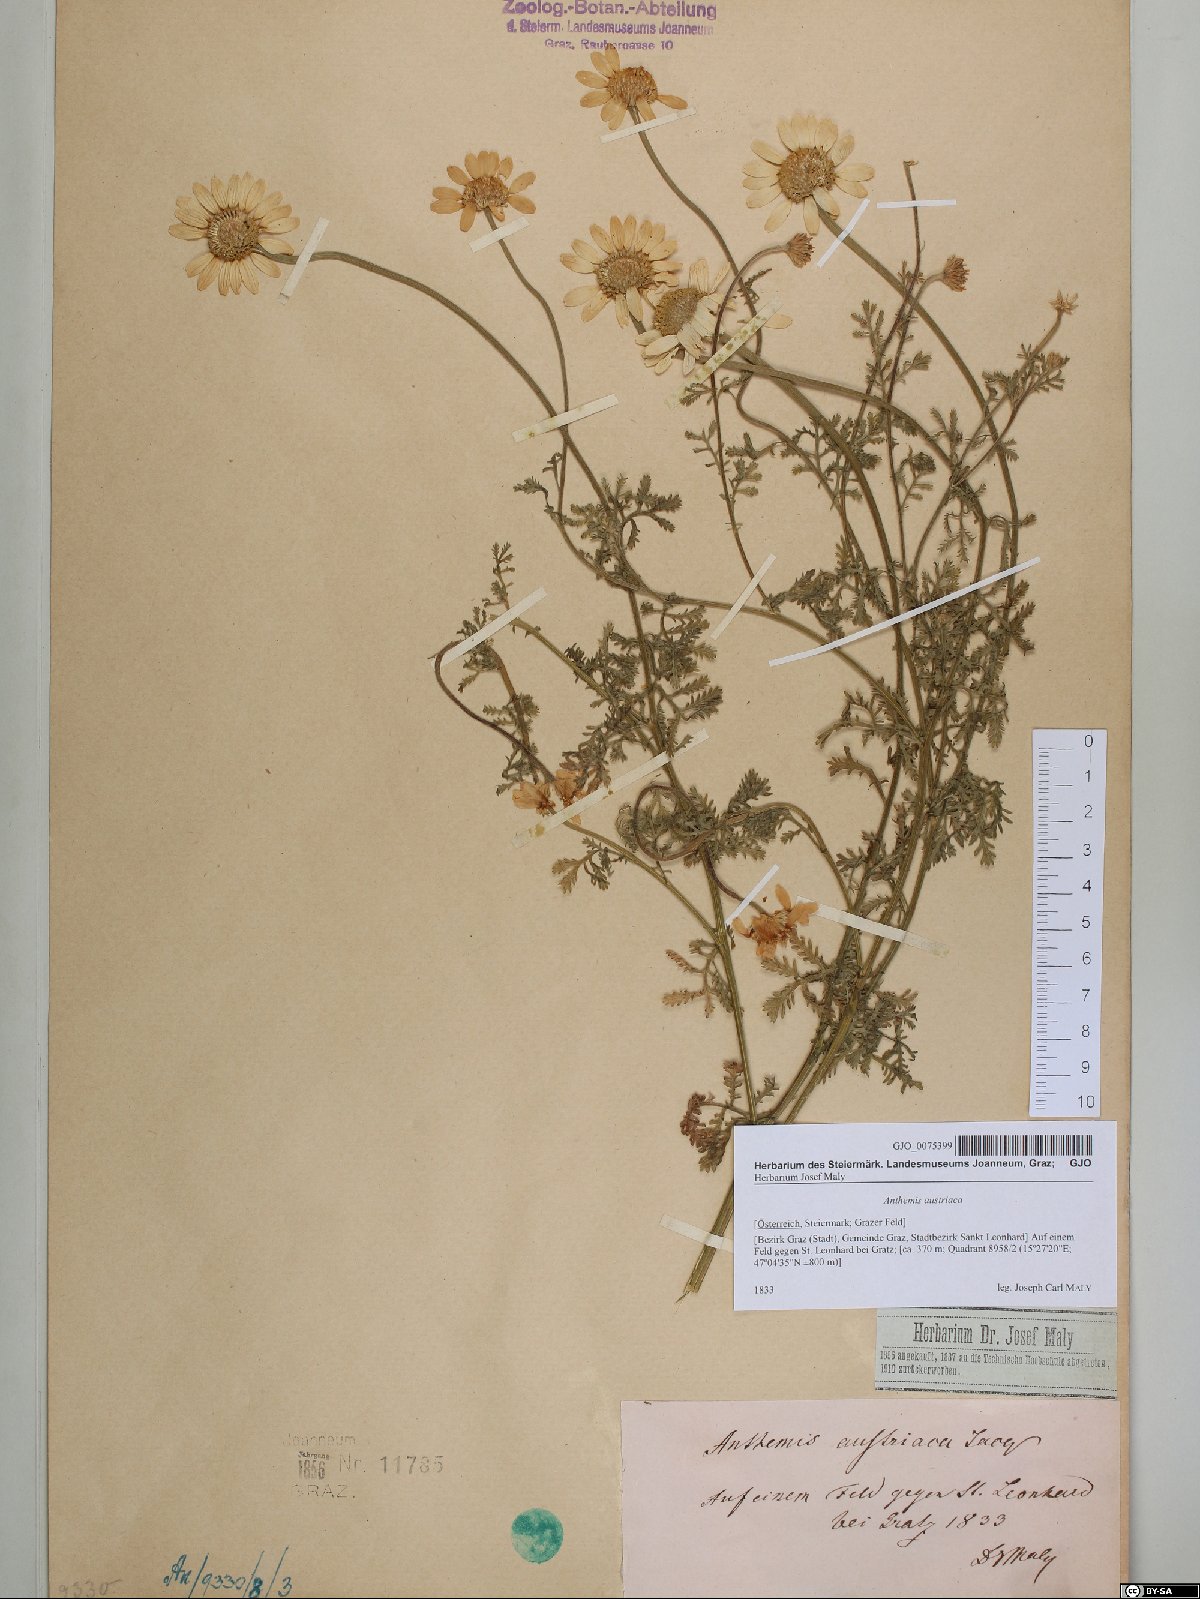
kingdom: Plantae
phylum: Tracheophyta
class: Magnoliopsida
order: Asterales
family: Asteraceae
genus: Cota
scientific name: Cota austriaca
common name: Austrian chamomile
